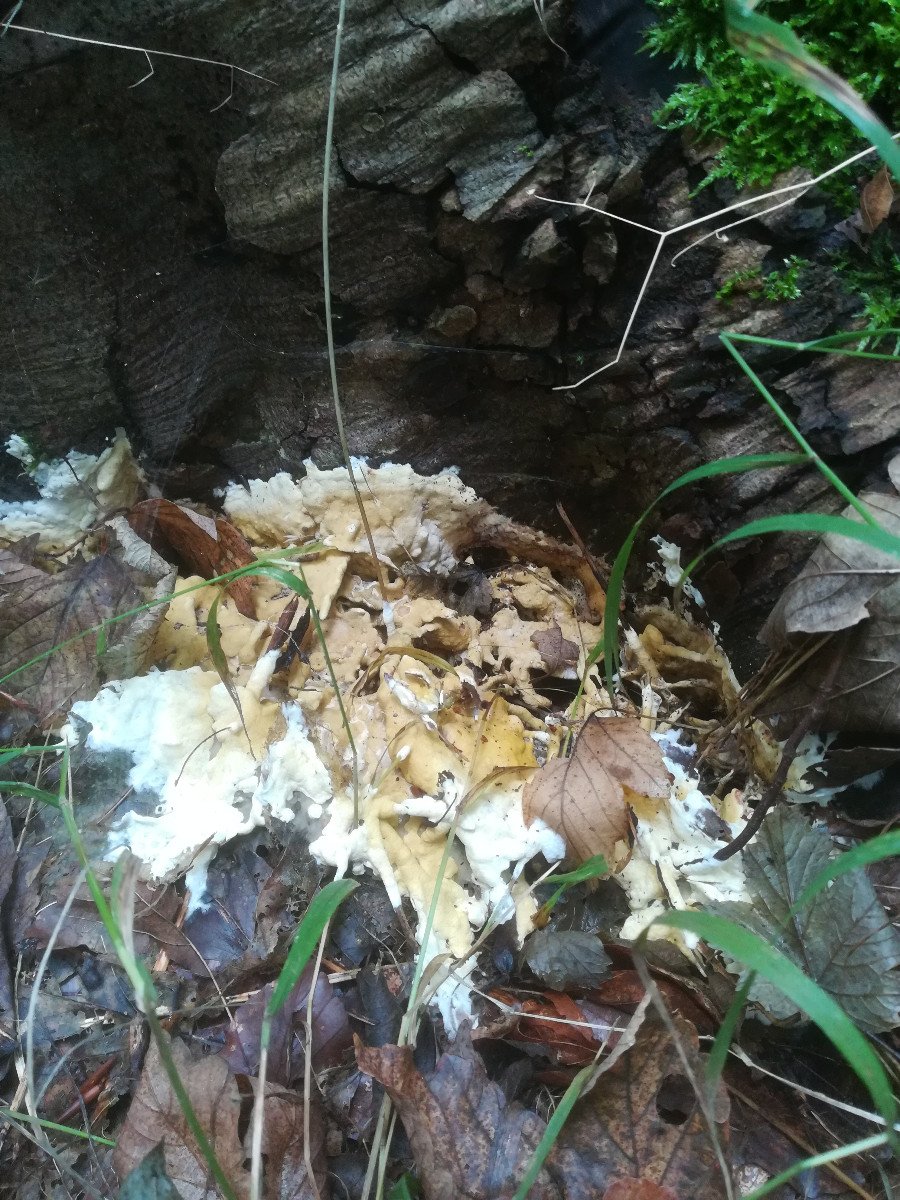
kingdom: Fungi
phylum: Ascomycota
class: Sordariomycetes
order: Hypocreales
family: Hypocreaceae
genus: Trichoderma
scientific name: Trichoderma citrinum
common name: udbredt kødkerne
